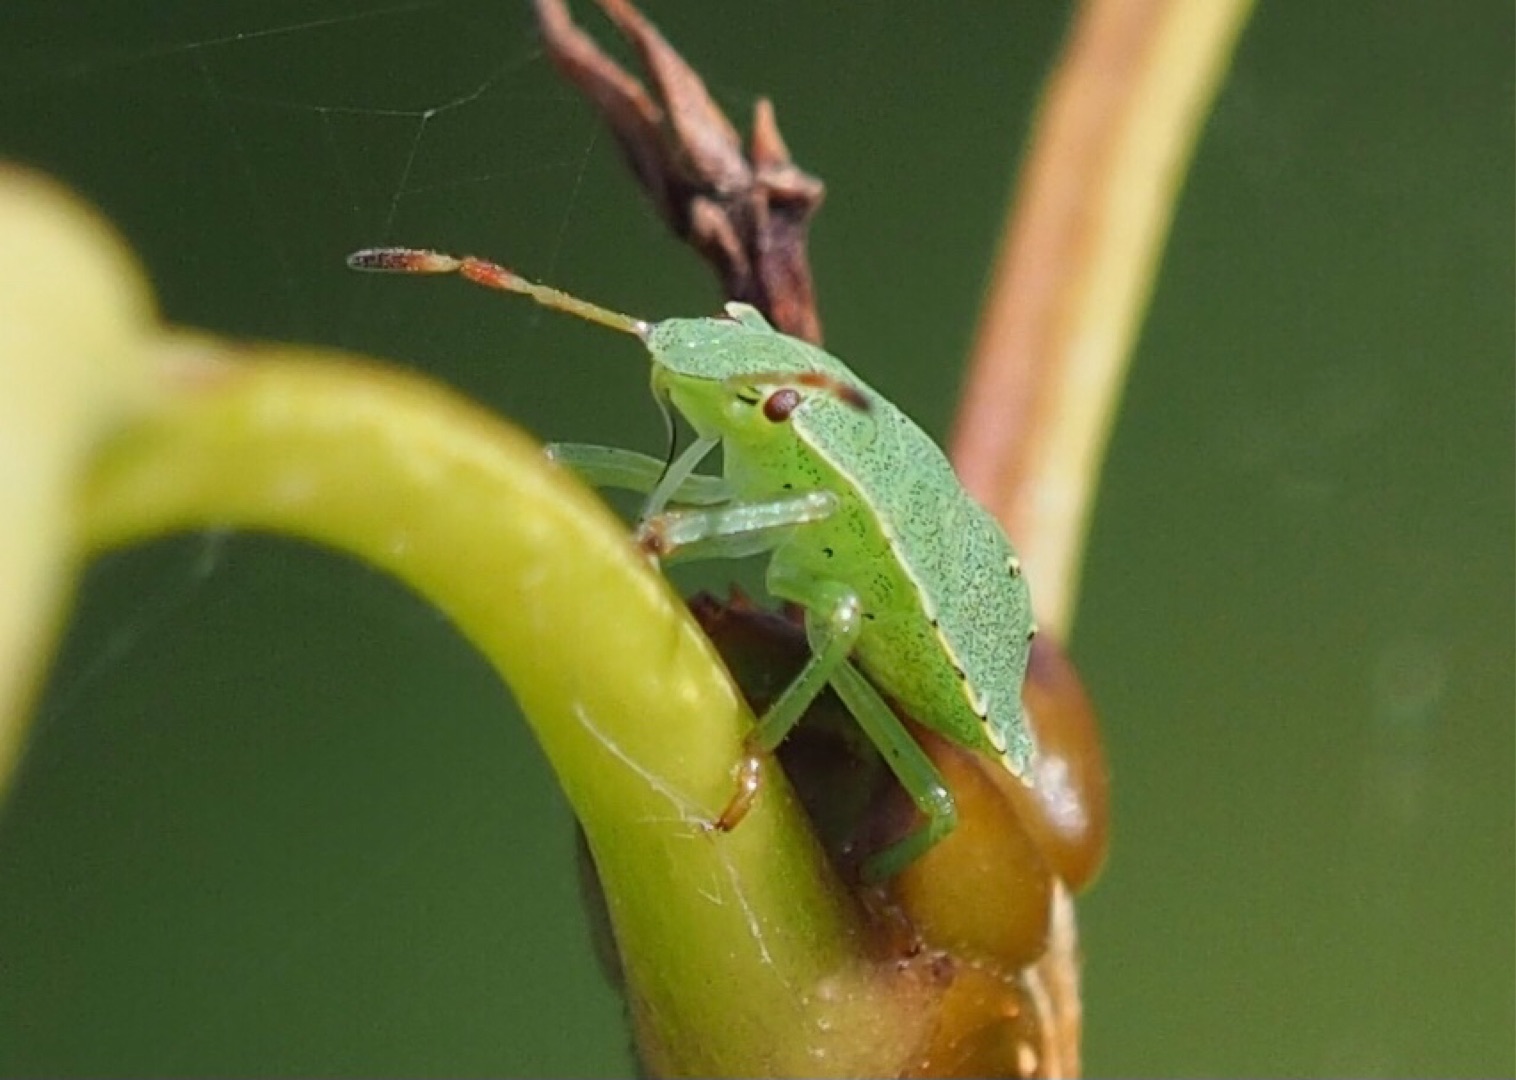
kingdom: Animalia
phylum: Arthropoda
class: Insecta
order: Hemiptera
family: Pentatomidae
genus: Palomena
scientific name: Palomena prasina
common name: Grøn bredtæge
